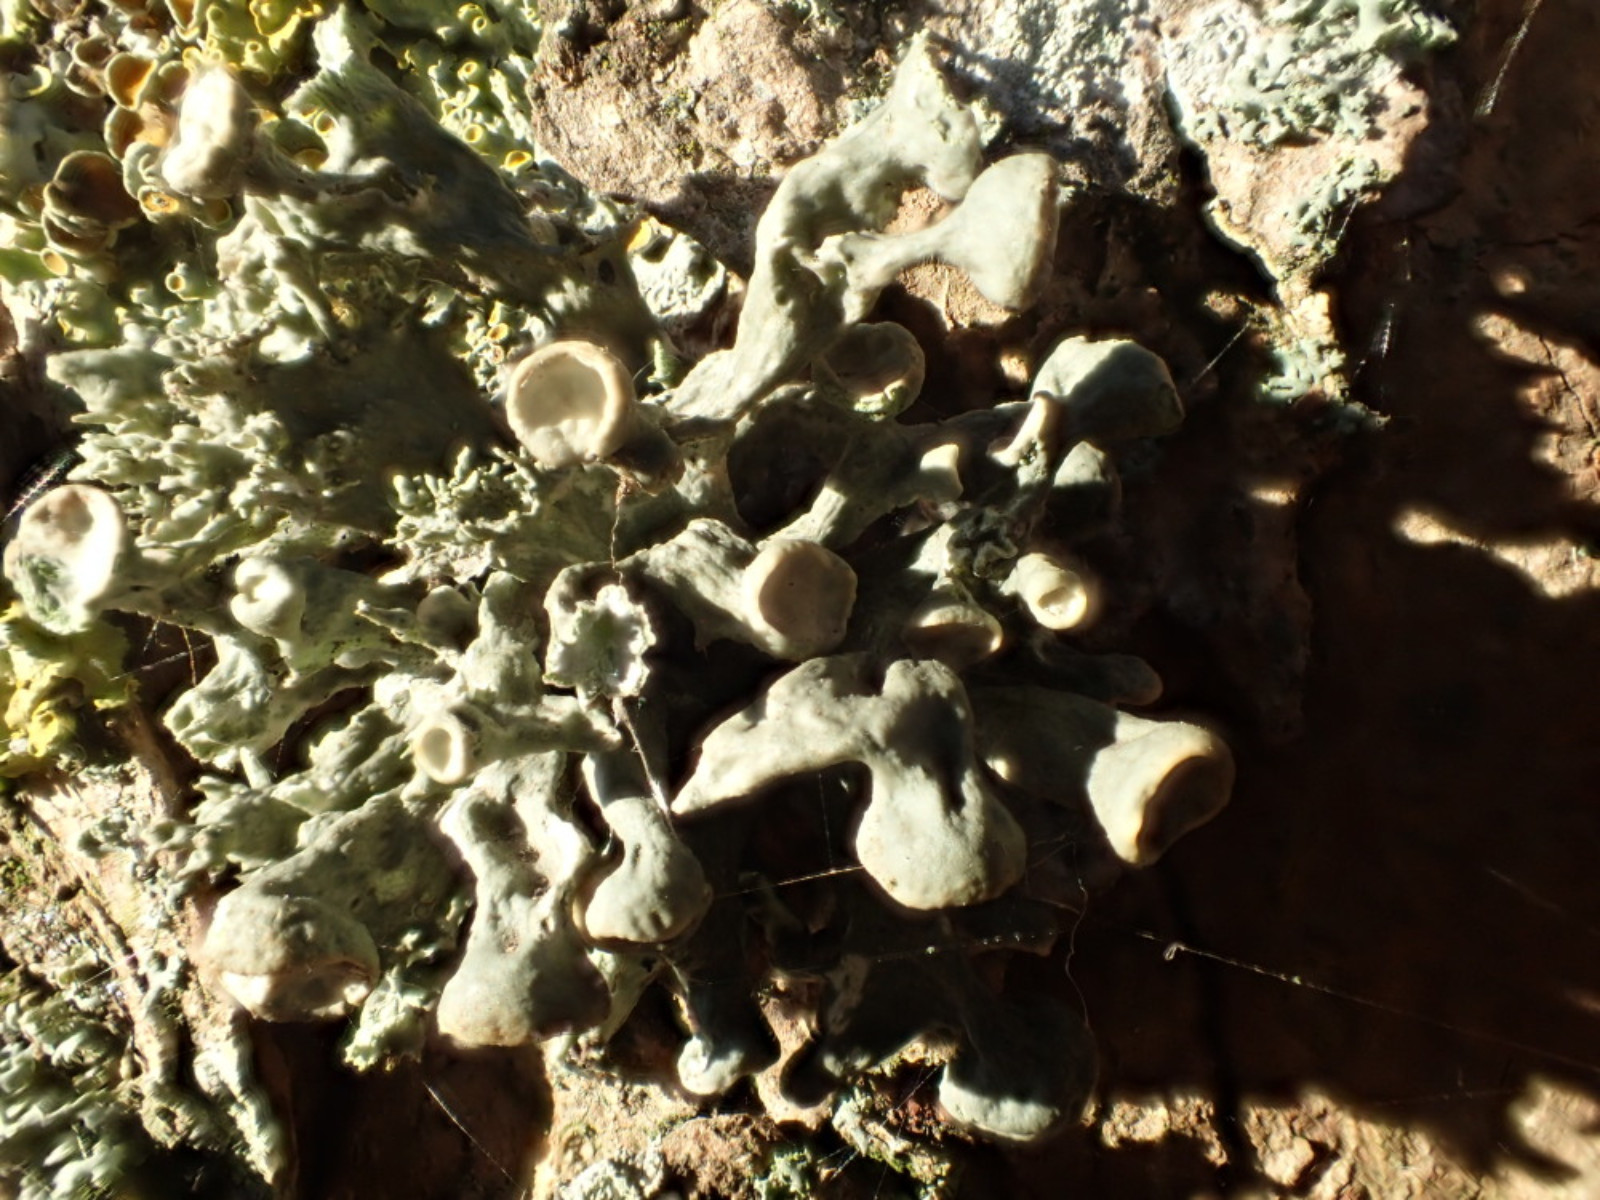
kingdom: Fungi
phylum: Ascomycota
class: Lecanoromycetes
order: Lecanorales
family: Ramalinaceae
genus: Ramalina
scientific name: Ramalina fastigiata
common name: tue-grenlav
